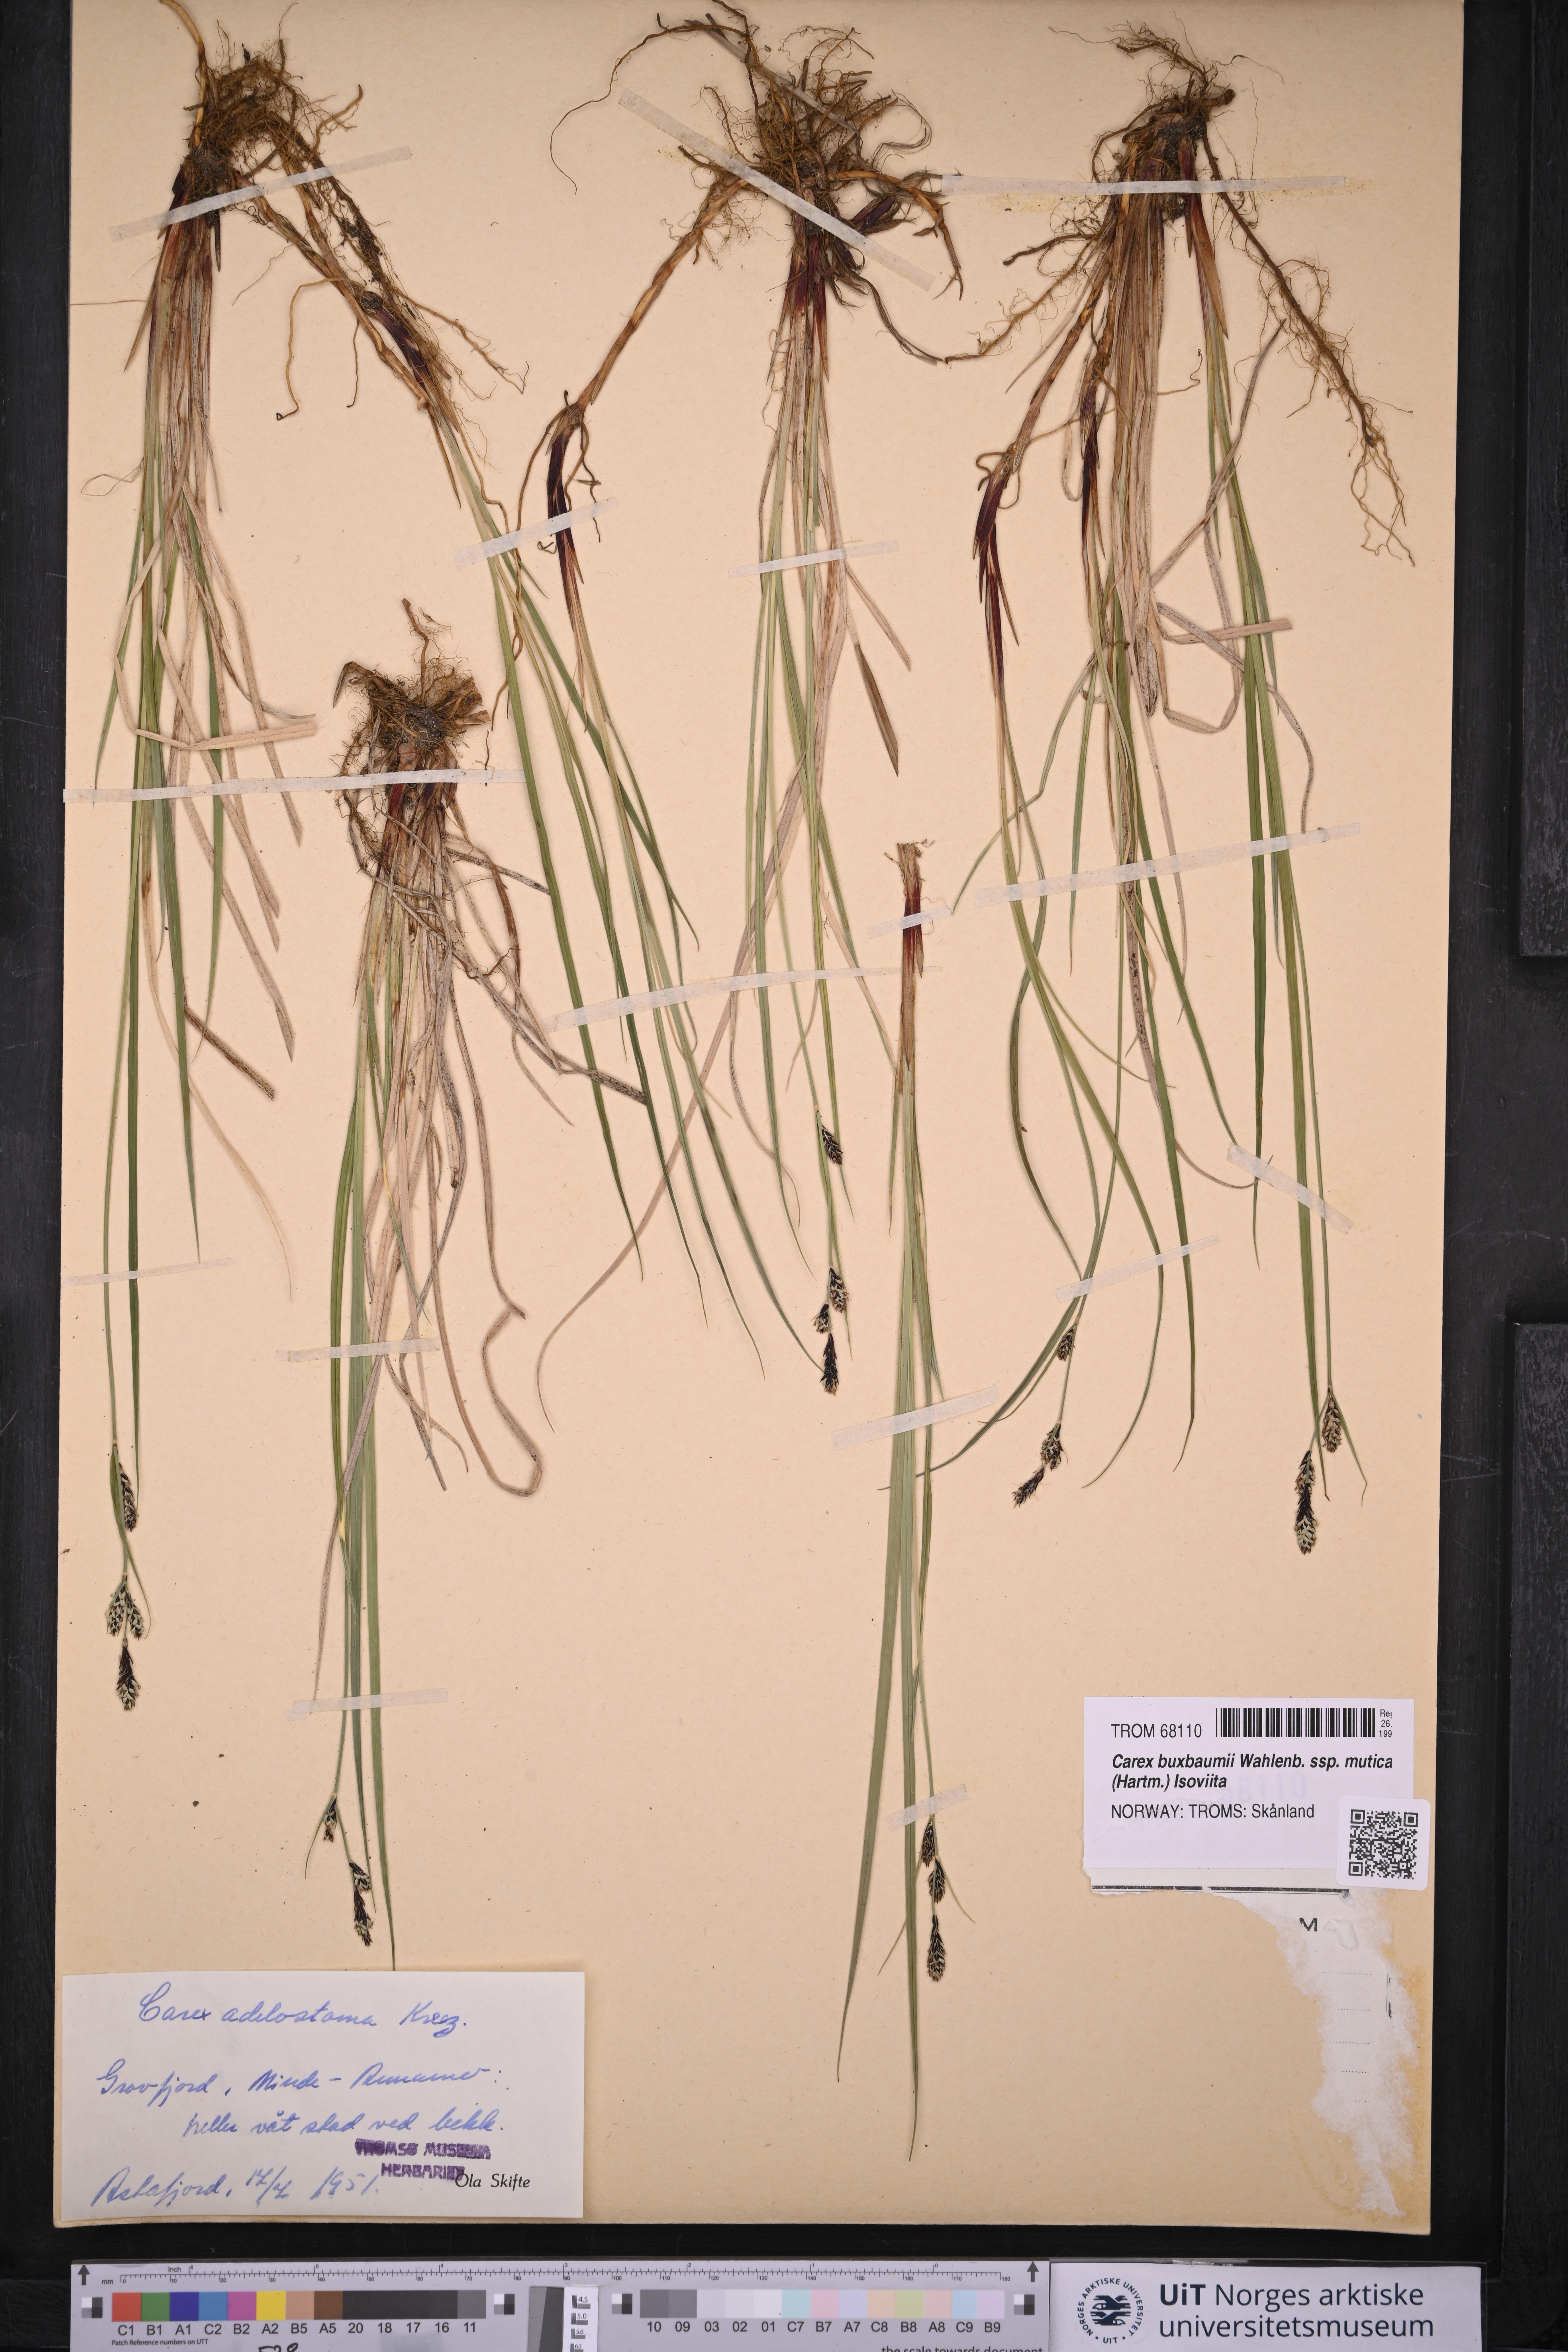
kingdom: Plantae
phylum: Tracheophyta
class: Liliopsida
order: Poales
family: Cyperaceae
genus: Carex
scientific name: Carex adelostoma
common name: Circumpolar sedge
